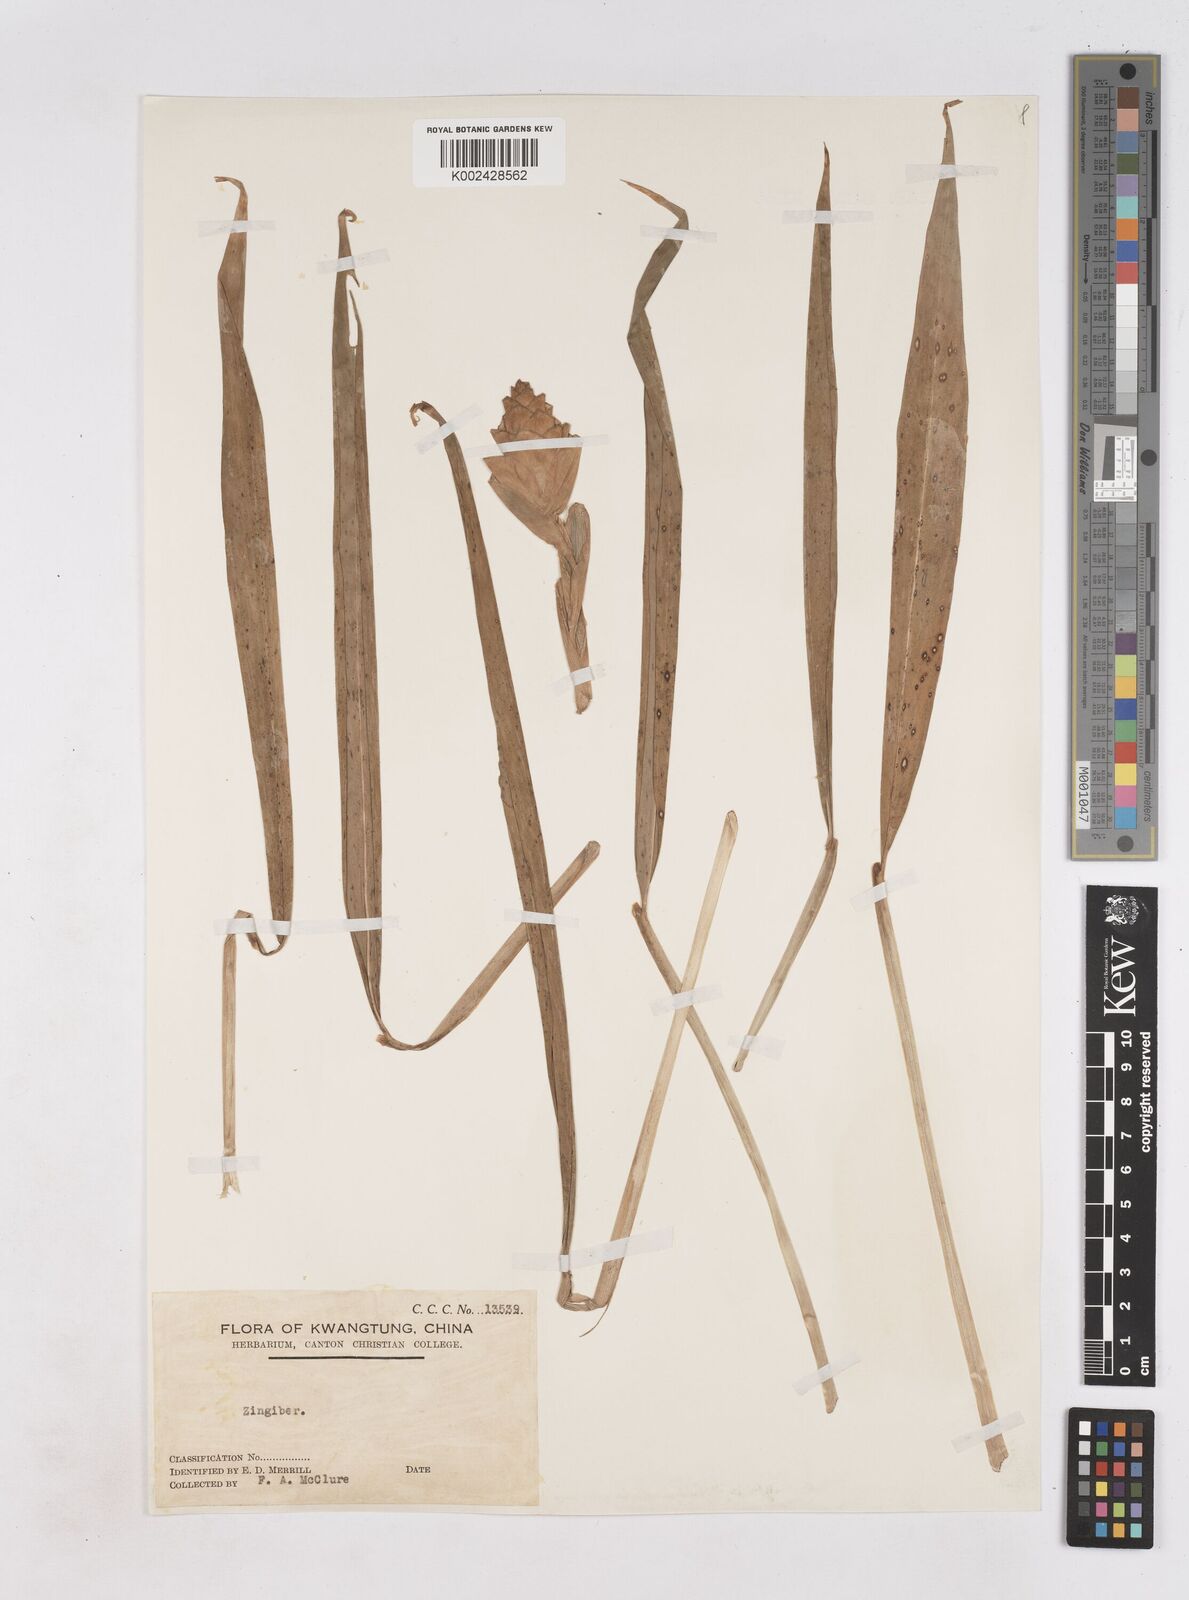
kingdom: Plantae
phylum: Tracheophyta
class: Liliopsida
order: Zingiberales
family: Zingiberaceae
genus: Zingiber
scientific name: Zingiber
